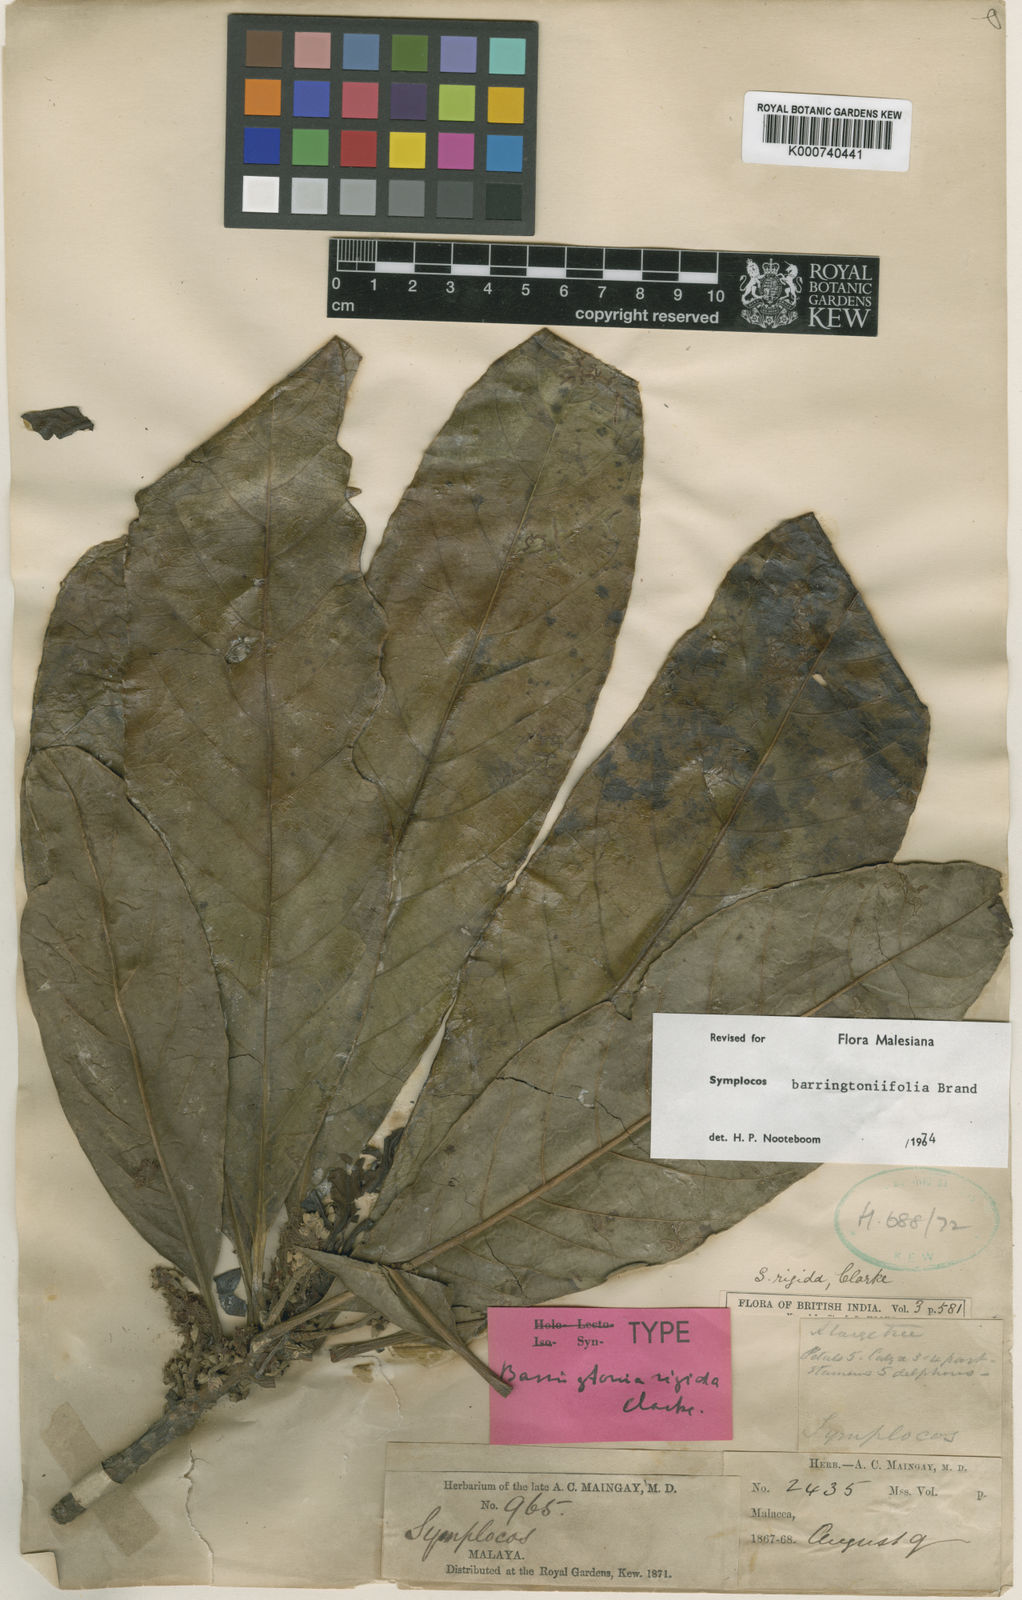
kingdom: Plantae
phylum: Tracheophyta
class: Magnoliopsida
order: Ericales
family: Symplocaceae
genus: Symplocos
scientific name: Symplocos barringtoniifolia
